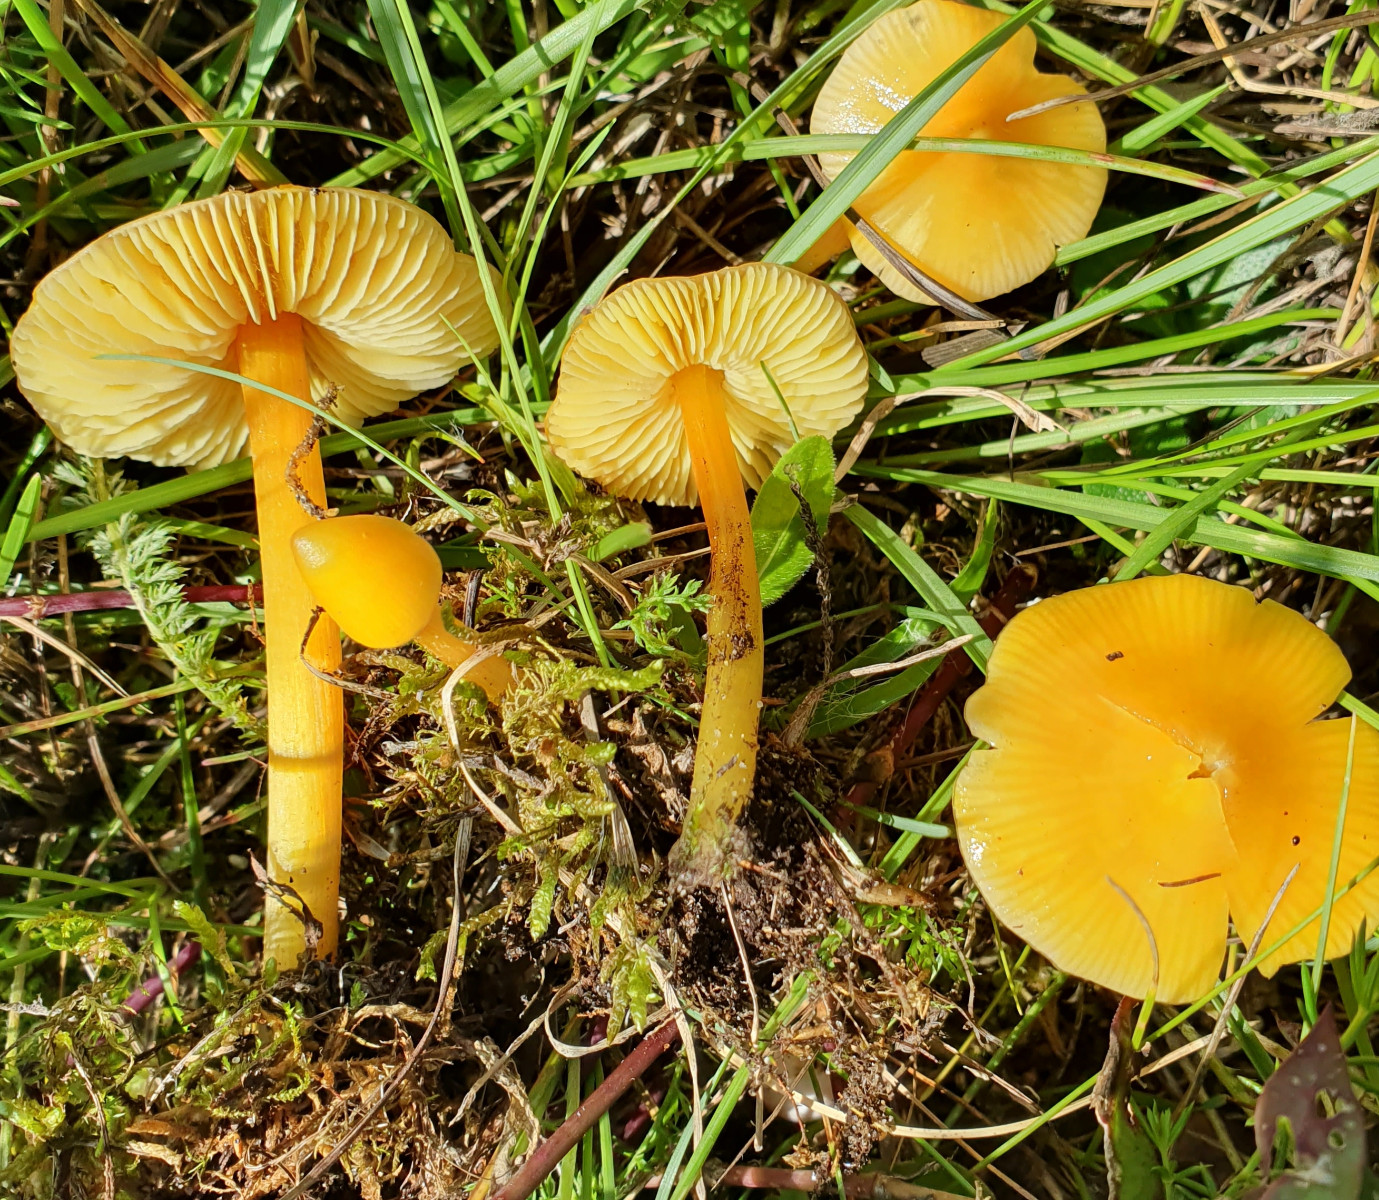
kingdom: Fungi
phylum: Basidiomycota
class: Agaricomycetes
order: Agaricales
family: Hygrophoraceae
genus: Hygrocybe
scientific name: Hygrocybe chlorophana
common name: gul vokshat
